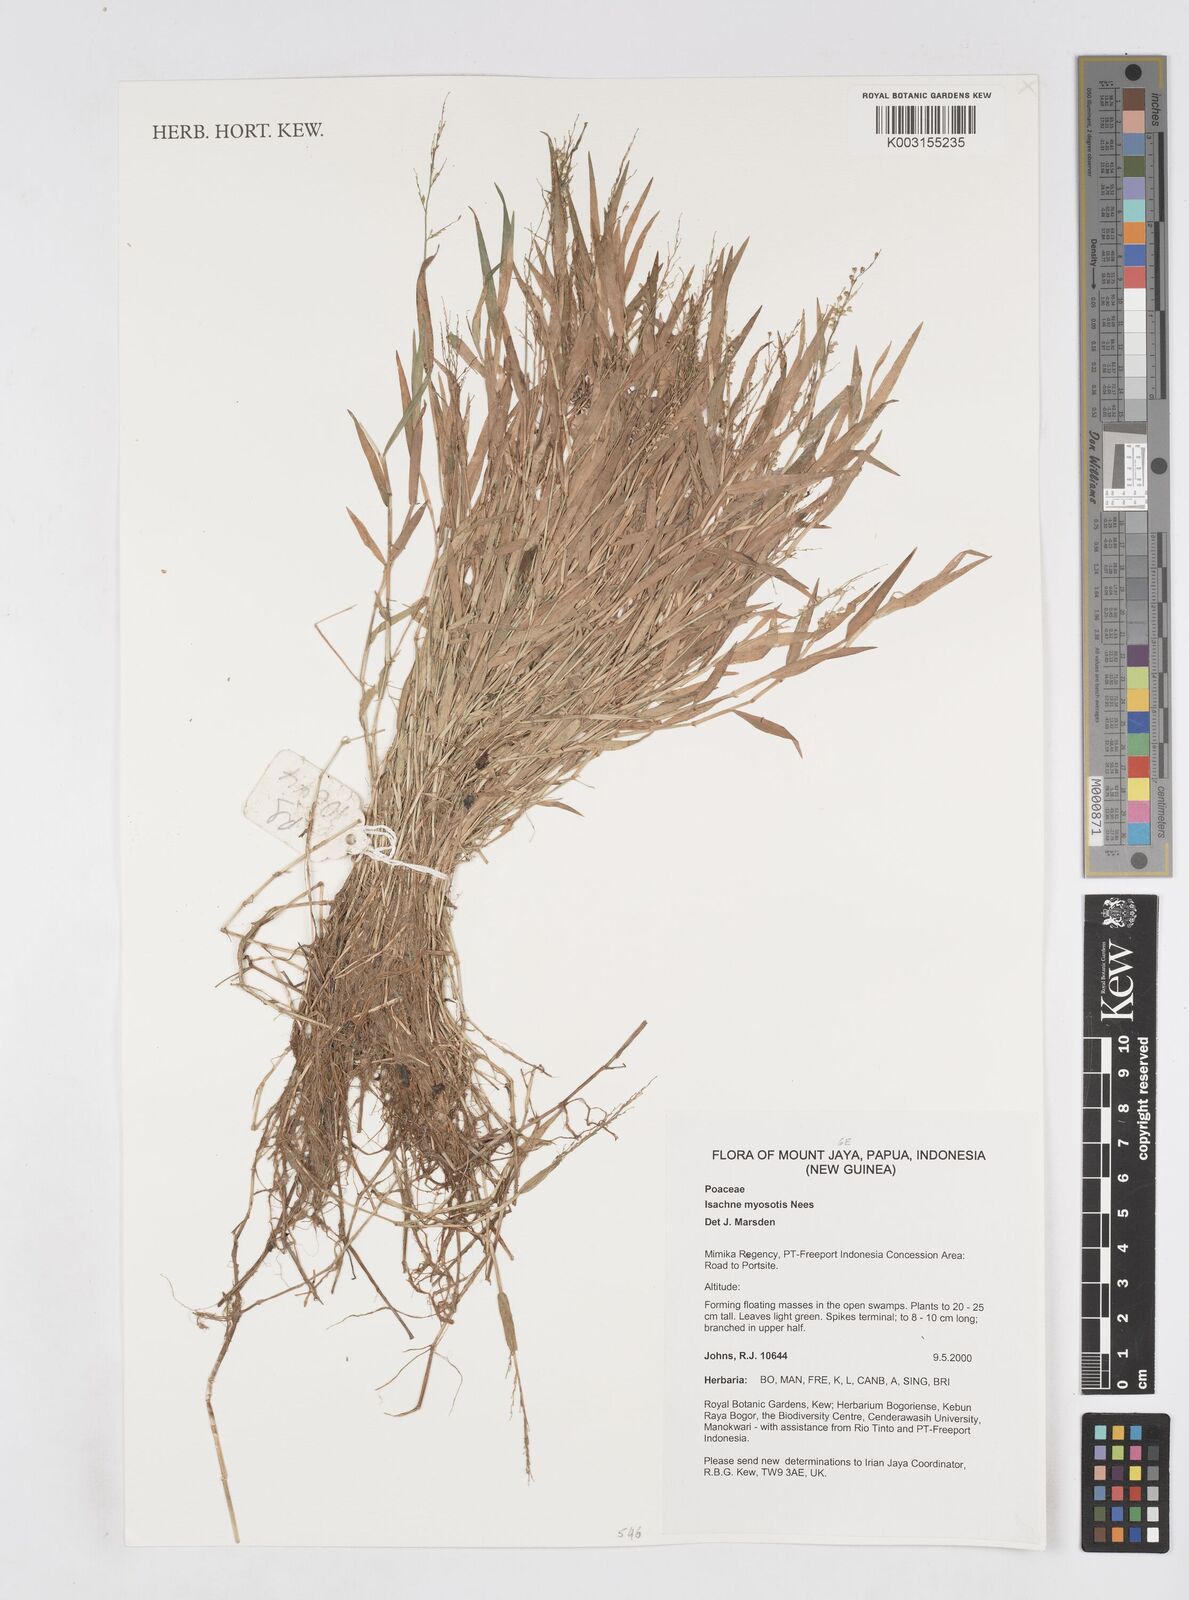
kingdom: Plantae
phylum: Tracheophyta
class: Liliopsida
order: Poales
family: Poaceae
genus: Isachne
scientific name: Isachne myosotis
